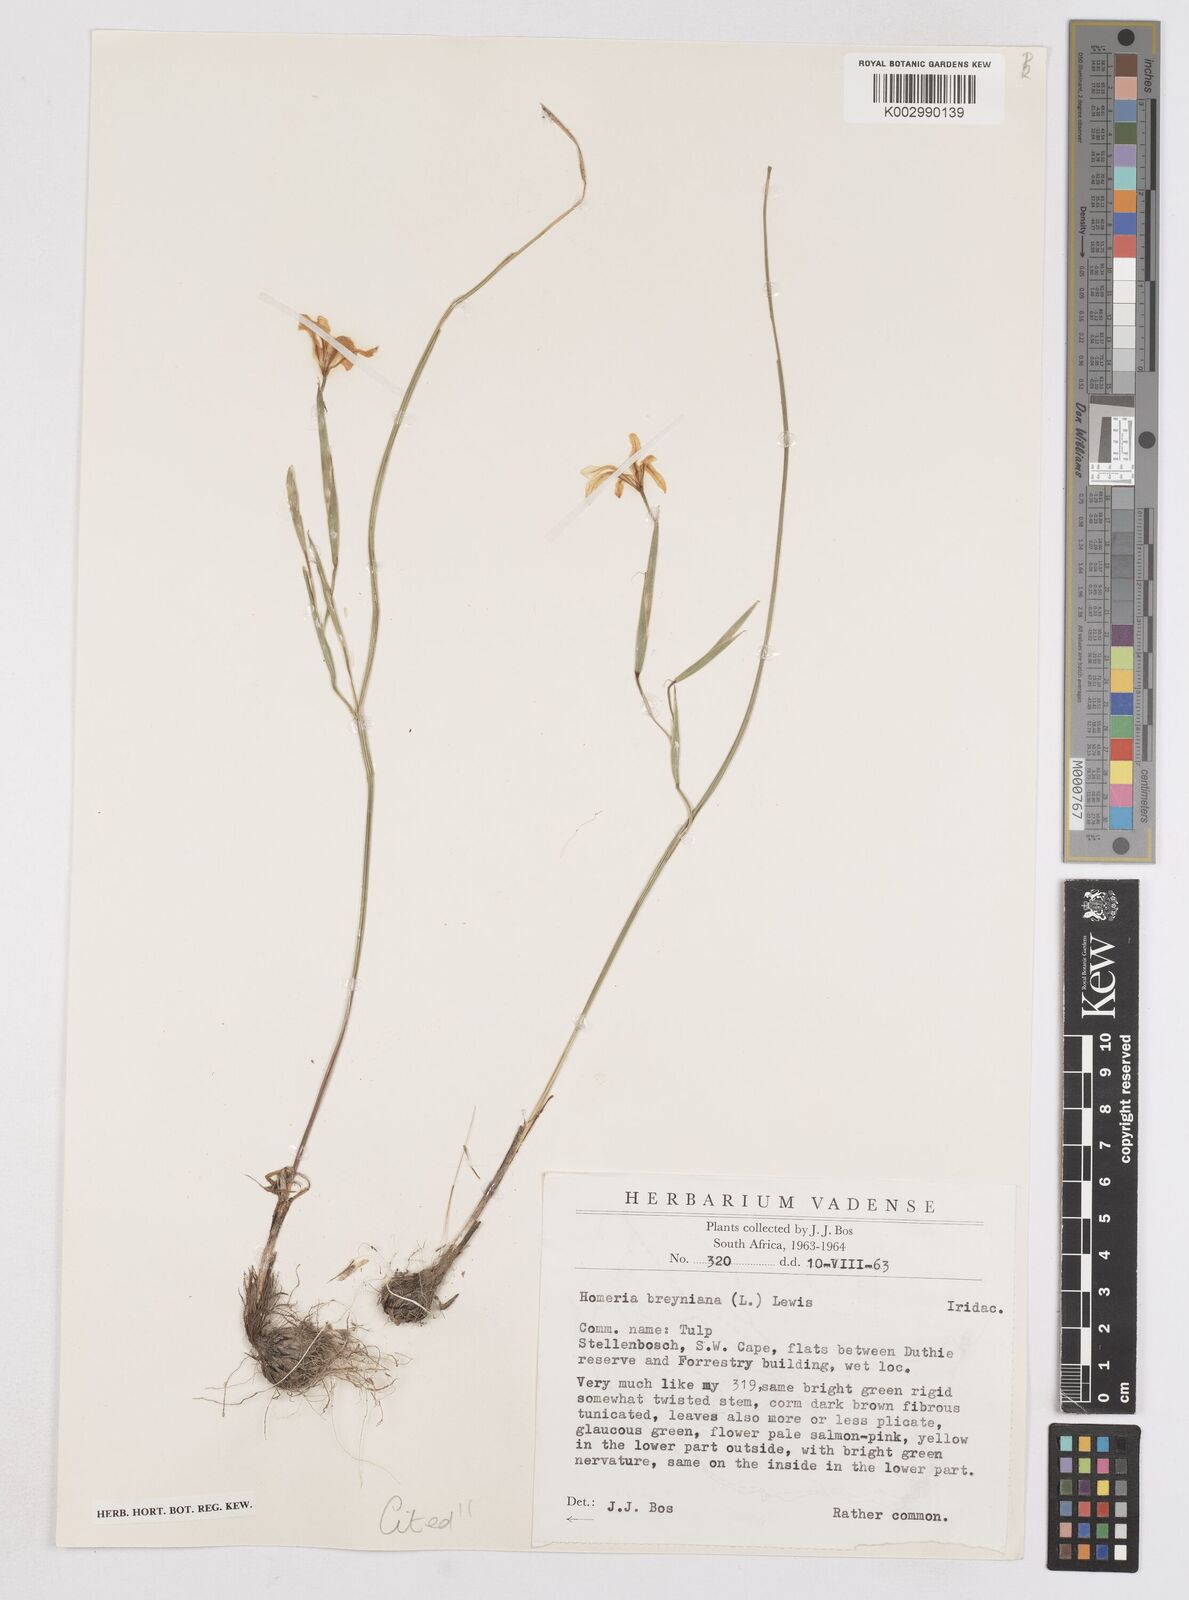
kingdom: Plantae
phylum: Tracheophyta
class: Liliopsida
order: Asparagales
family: Iridaceae
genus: Moraea
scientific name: Moraea collina
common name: Cape-tulip
